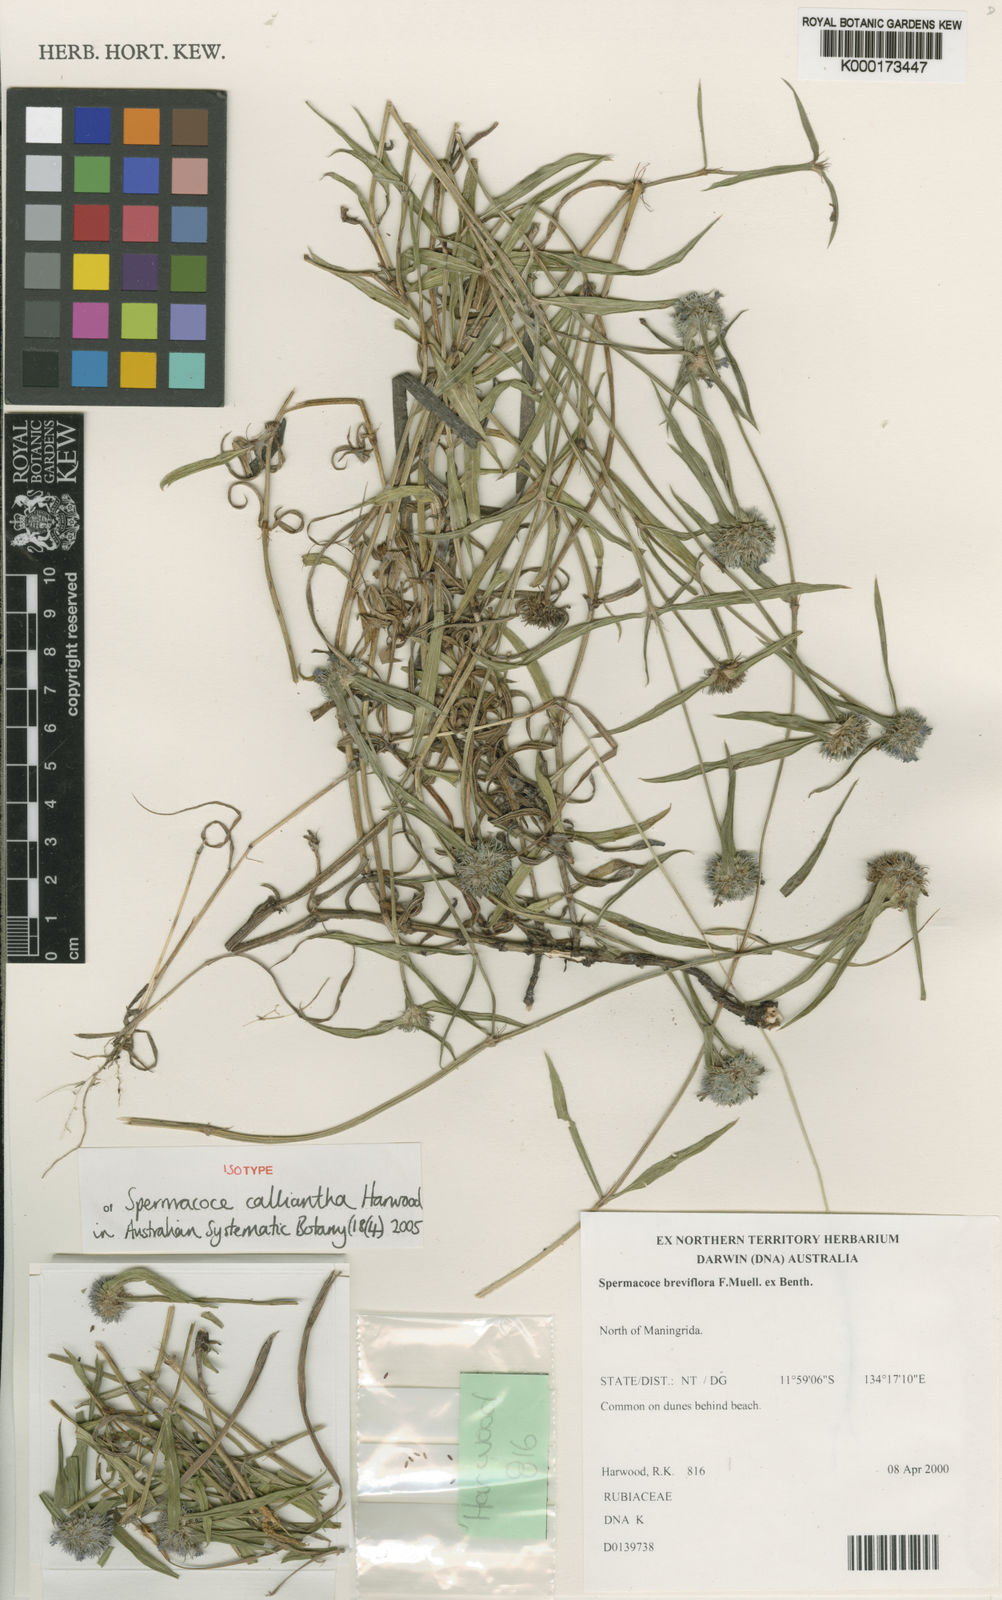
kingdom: Plantae
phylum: Tracheophyta
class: Magnoliopsida
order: Gentianales
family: Rubiaceae
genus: Spermacoce
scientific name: Spermacoce calliantha
